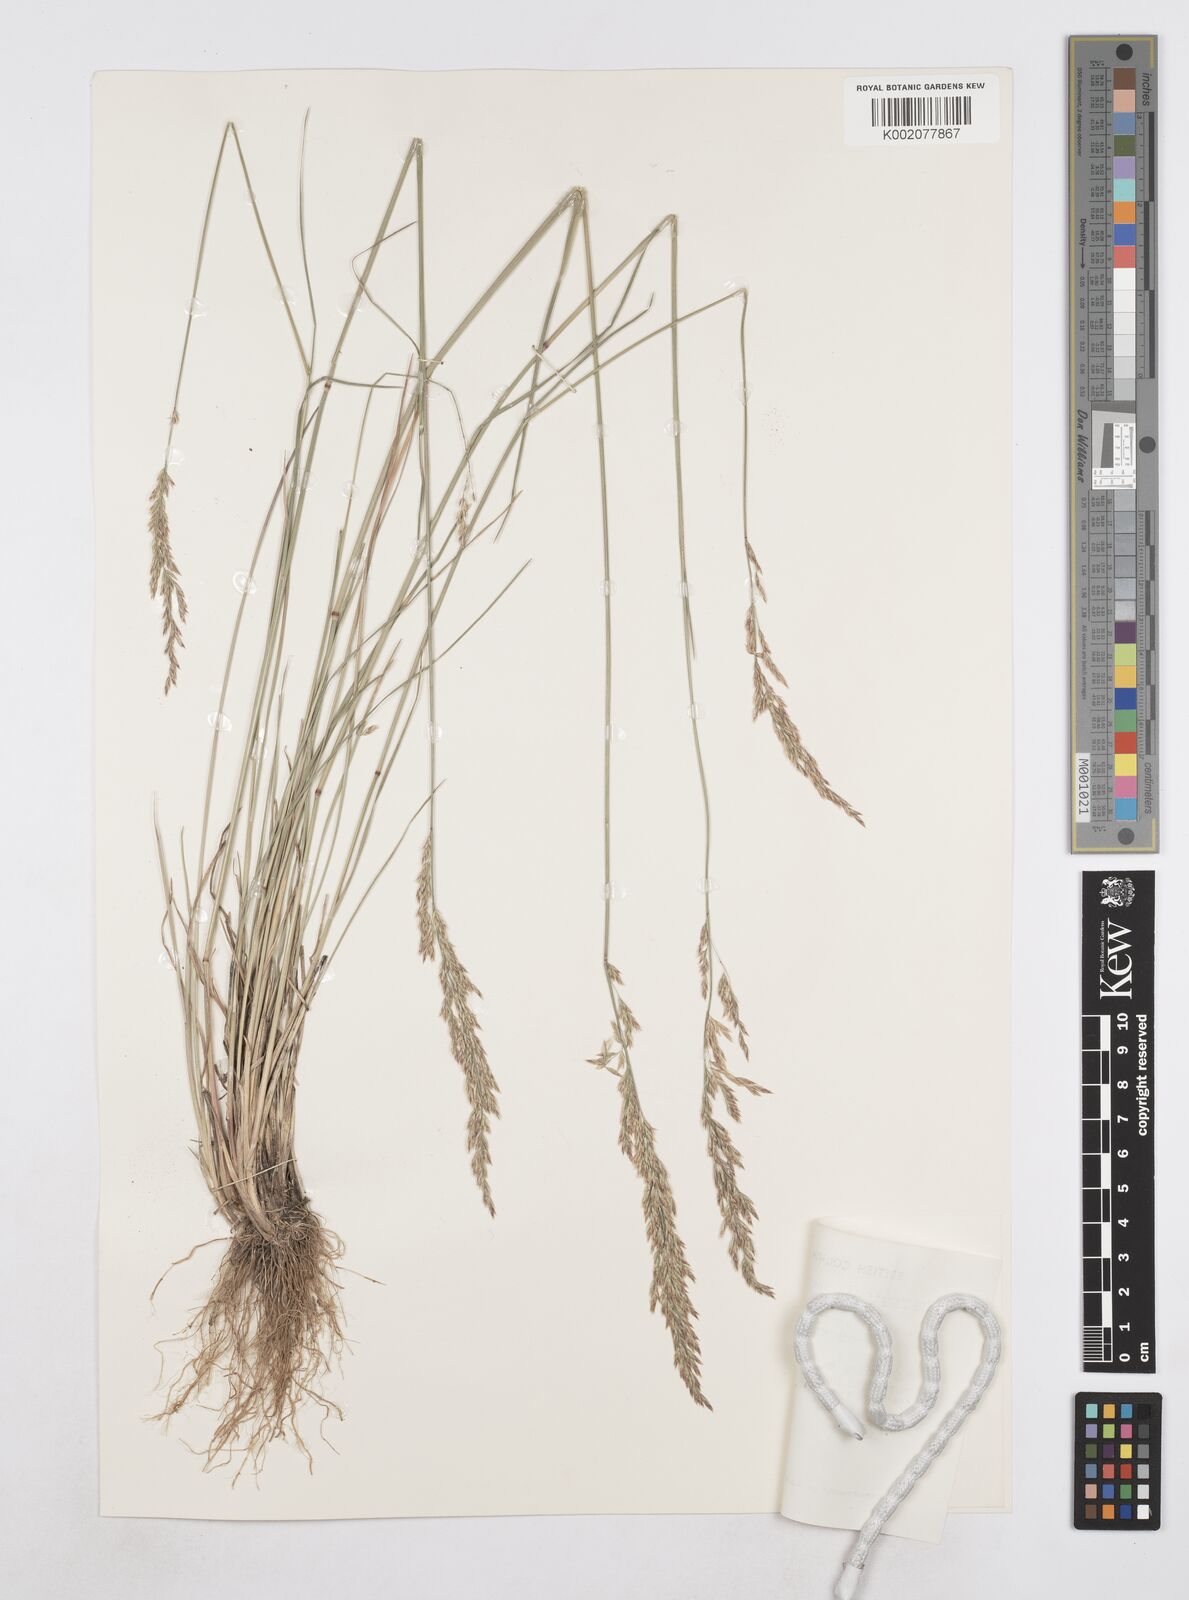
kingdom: Plantae
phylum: Tracheophyta
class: Liliopsida
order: Poales
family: Poaceae
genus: Poa
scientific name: Poa secunda
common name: Sandberg bluegrass
